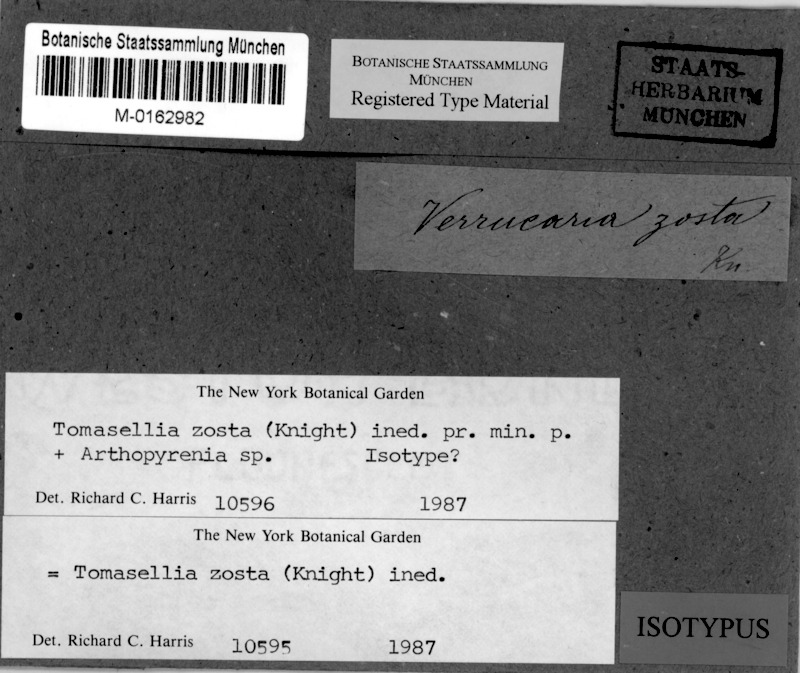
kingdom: Fungi
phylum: Ascomycota
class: Dothideomycetes
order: Trypetheliales
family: Trypetheliaceae
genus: Arthopyrenia
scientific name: Arthopyrenia zostra
